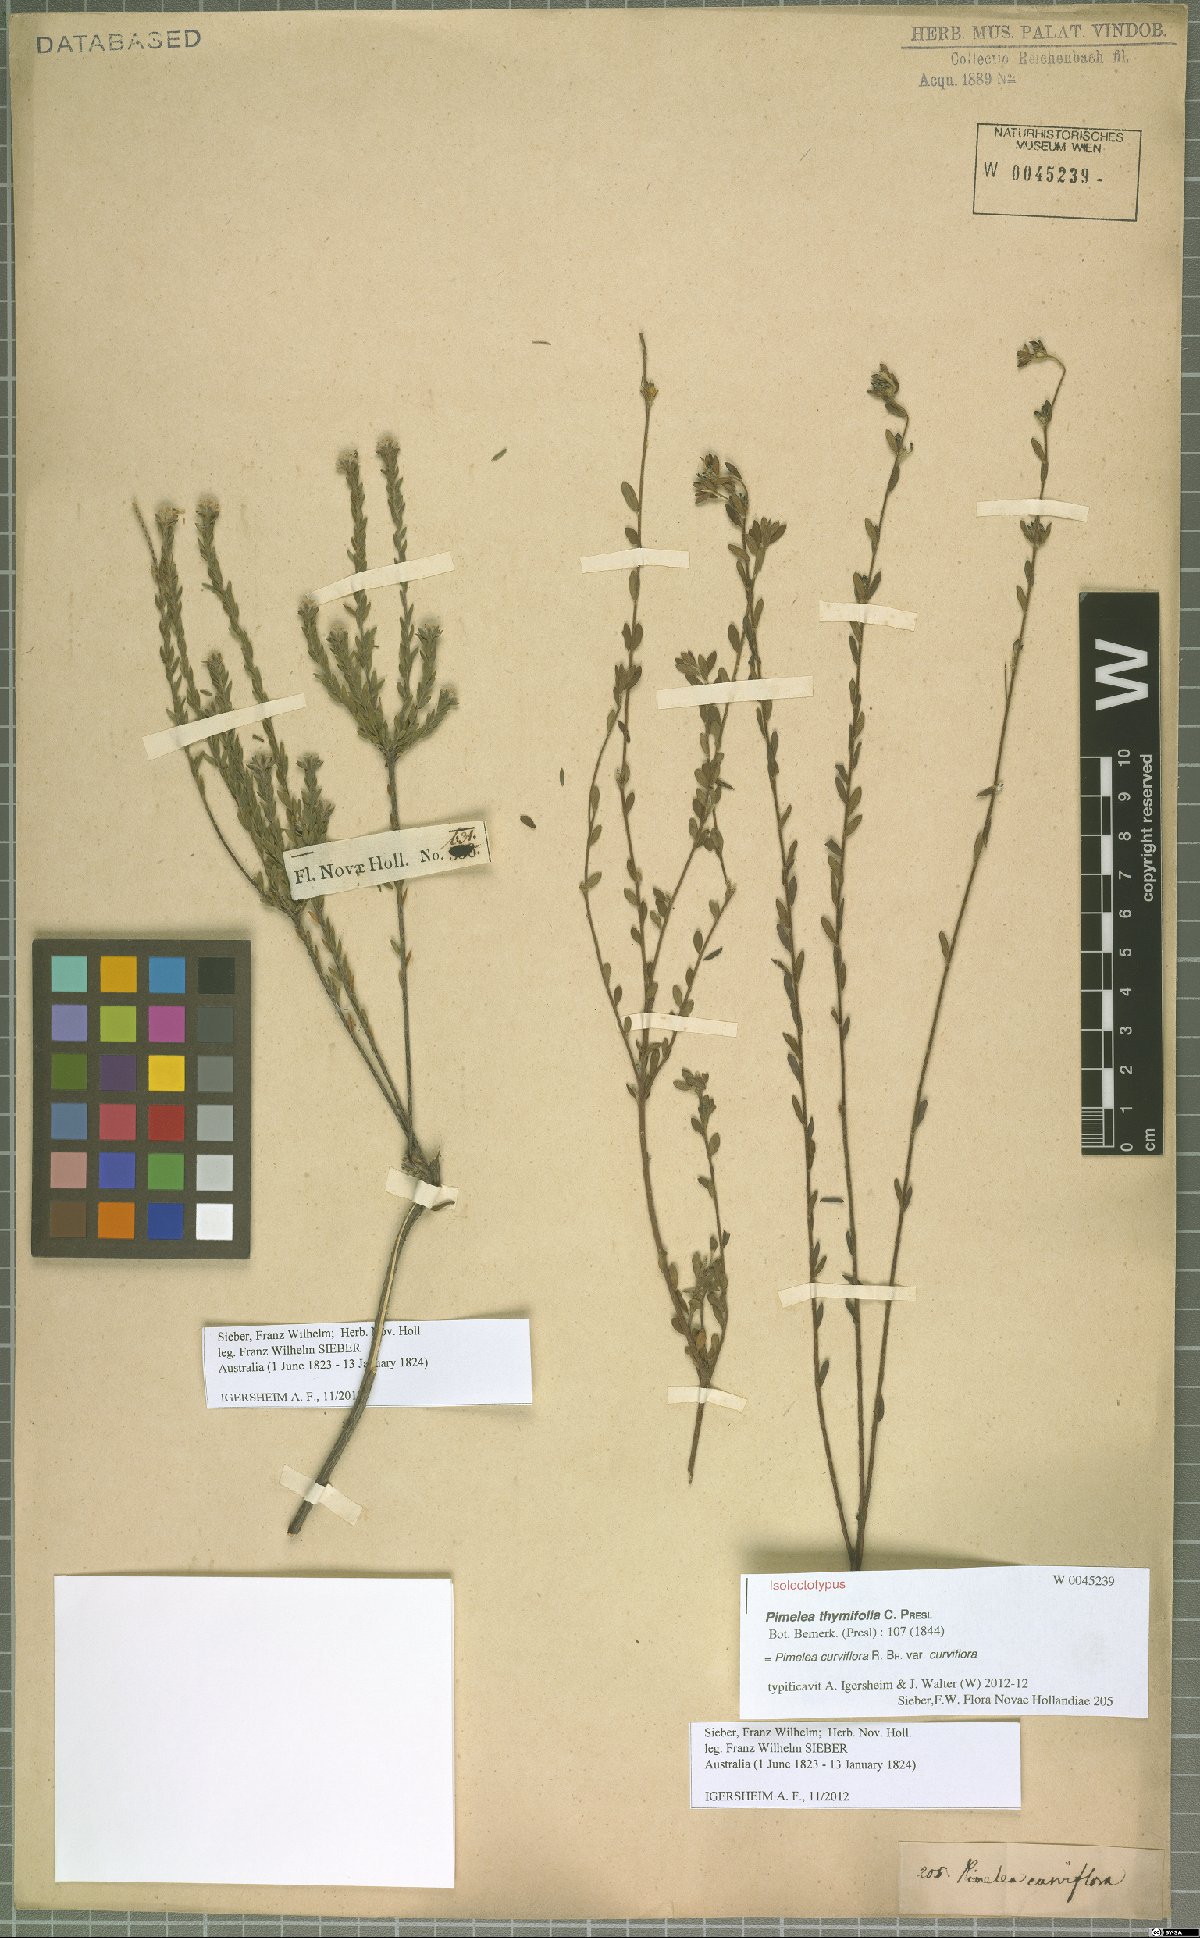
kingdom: Plantae
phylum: Tracheophyta
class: Magnoliopsida
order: Malvales
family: Thymelaeaceae
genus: Pimelea
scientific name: Pimelea curviflora
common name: Curved riceflower
